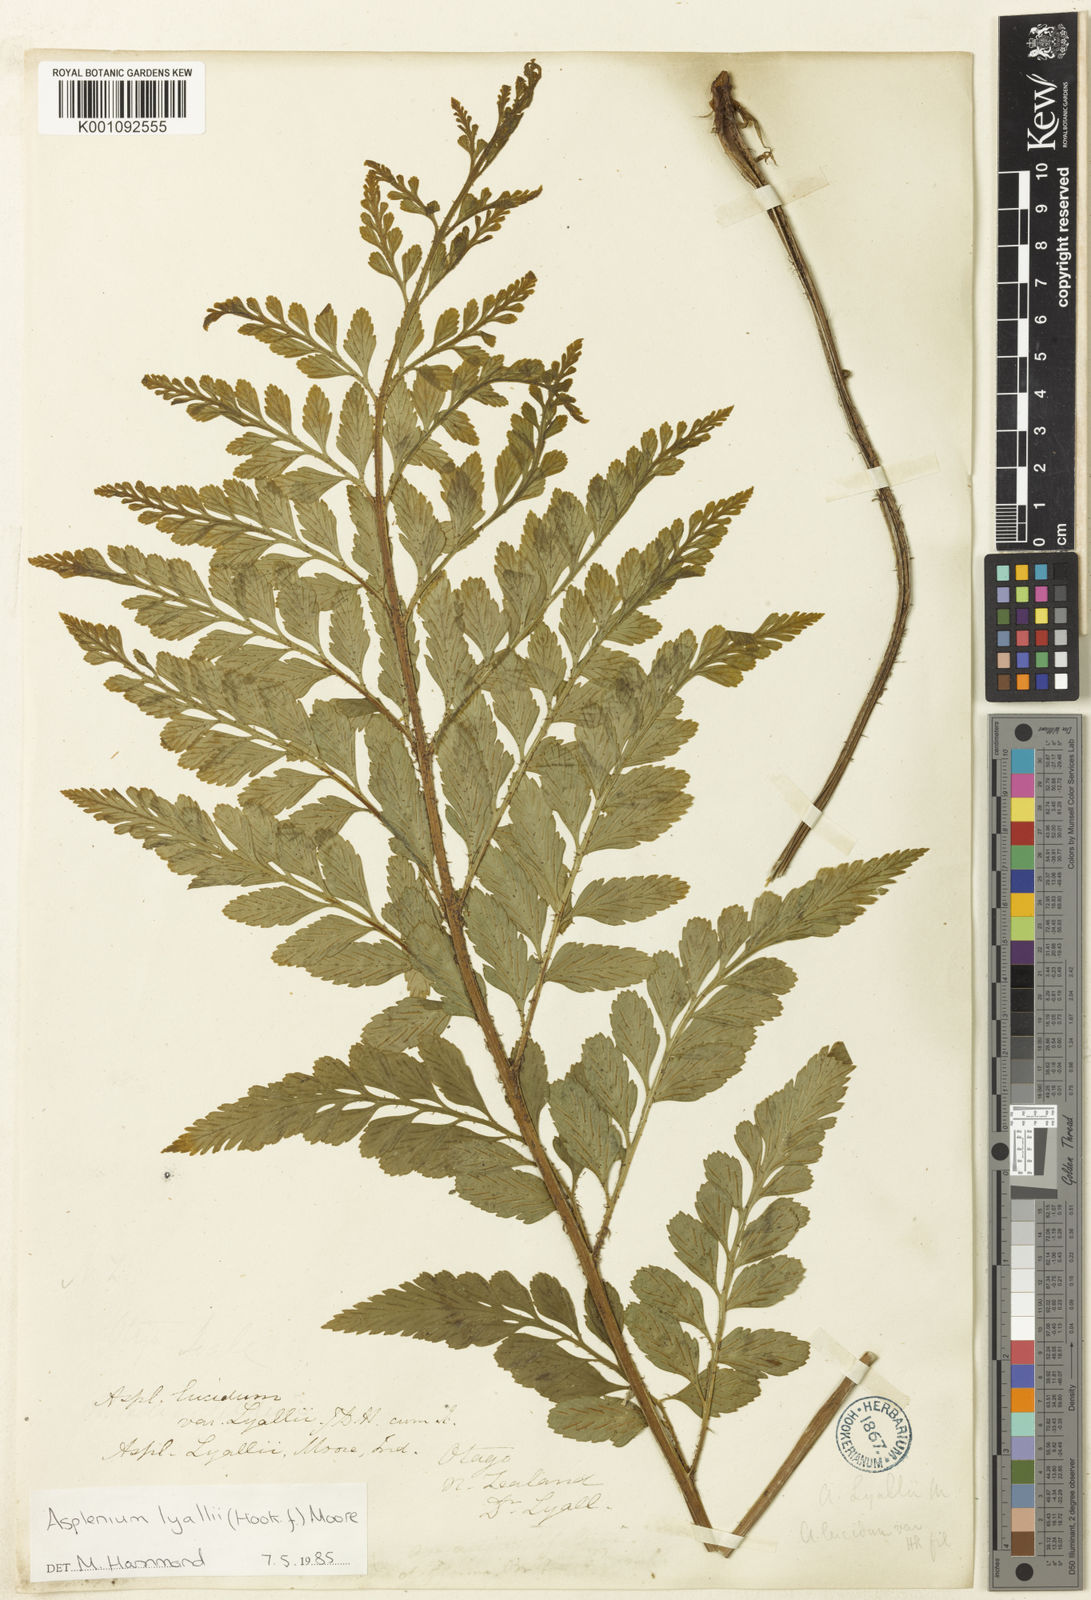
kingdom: Plantae
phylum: Tracheophyta
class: Polypodiopsida
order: Polypodiales
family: Aspleniaceae
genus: Asplenium
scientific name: Asplenium lyallii
